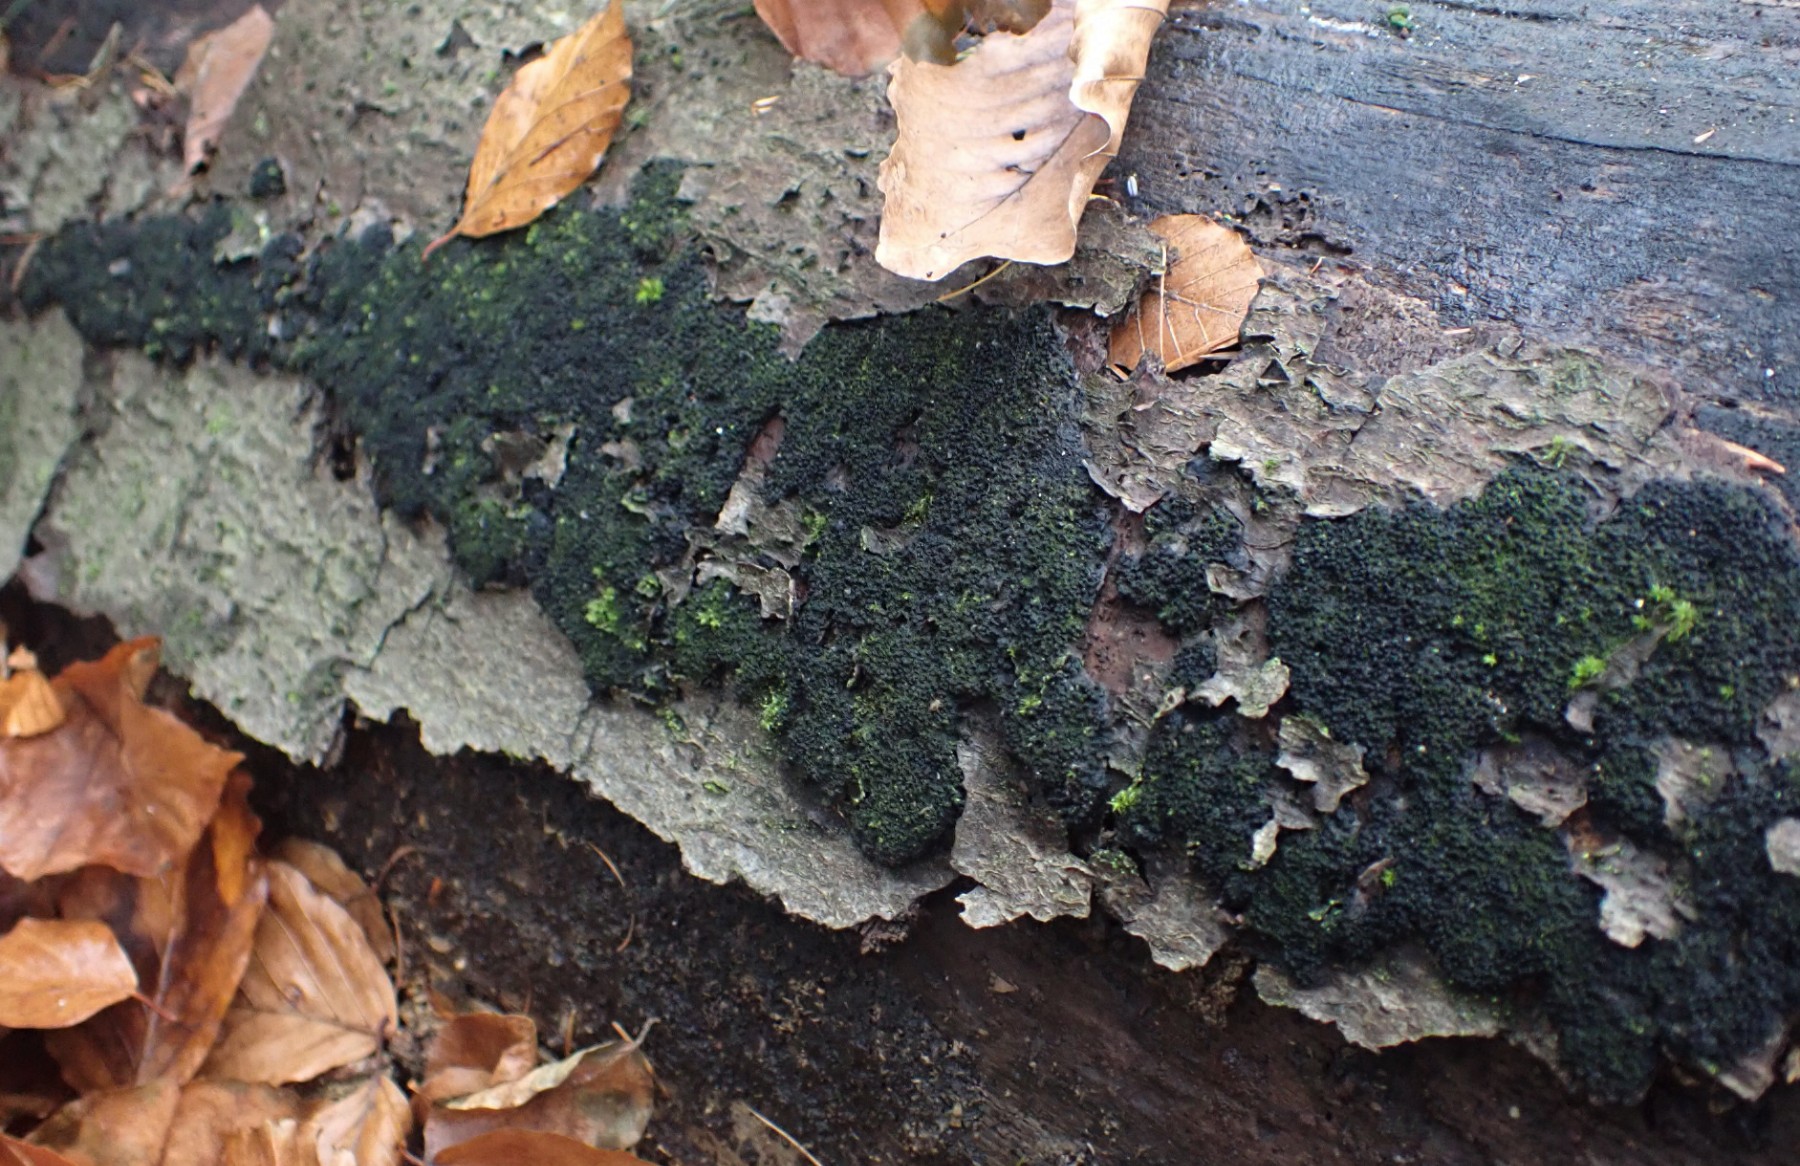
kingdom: Fungi
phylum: Ascomycota
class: Sordariomycetes
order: Xylariales
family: Diatrypaceae
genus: Eutypa
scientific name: Eutypa spinosa
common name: grov kulskorpe
